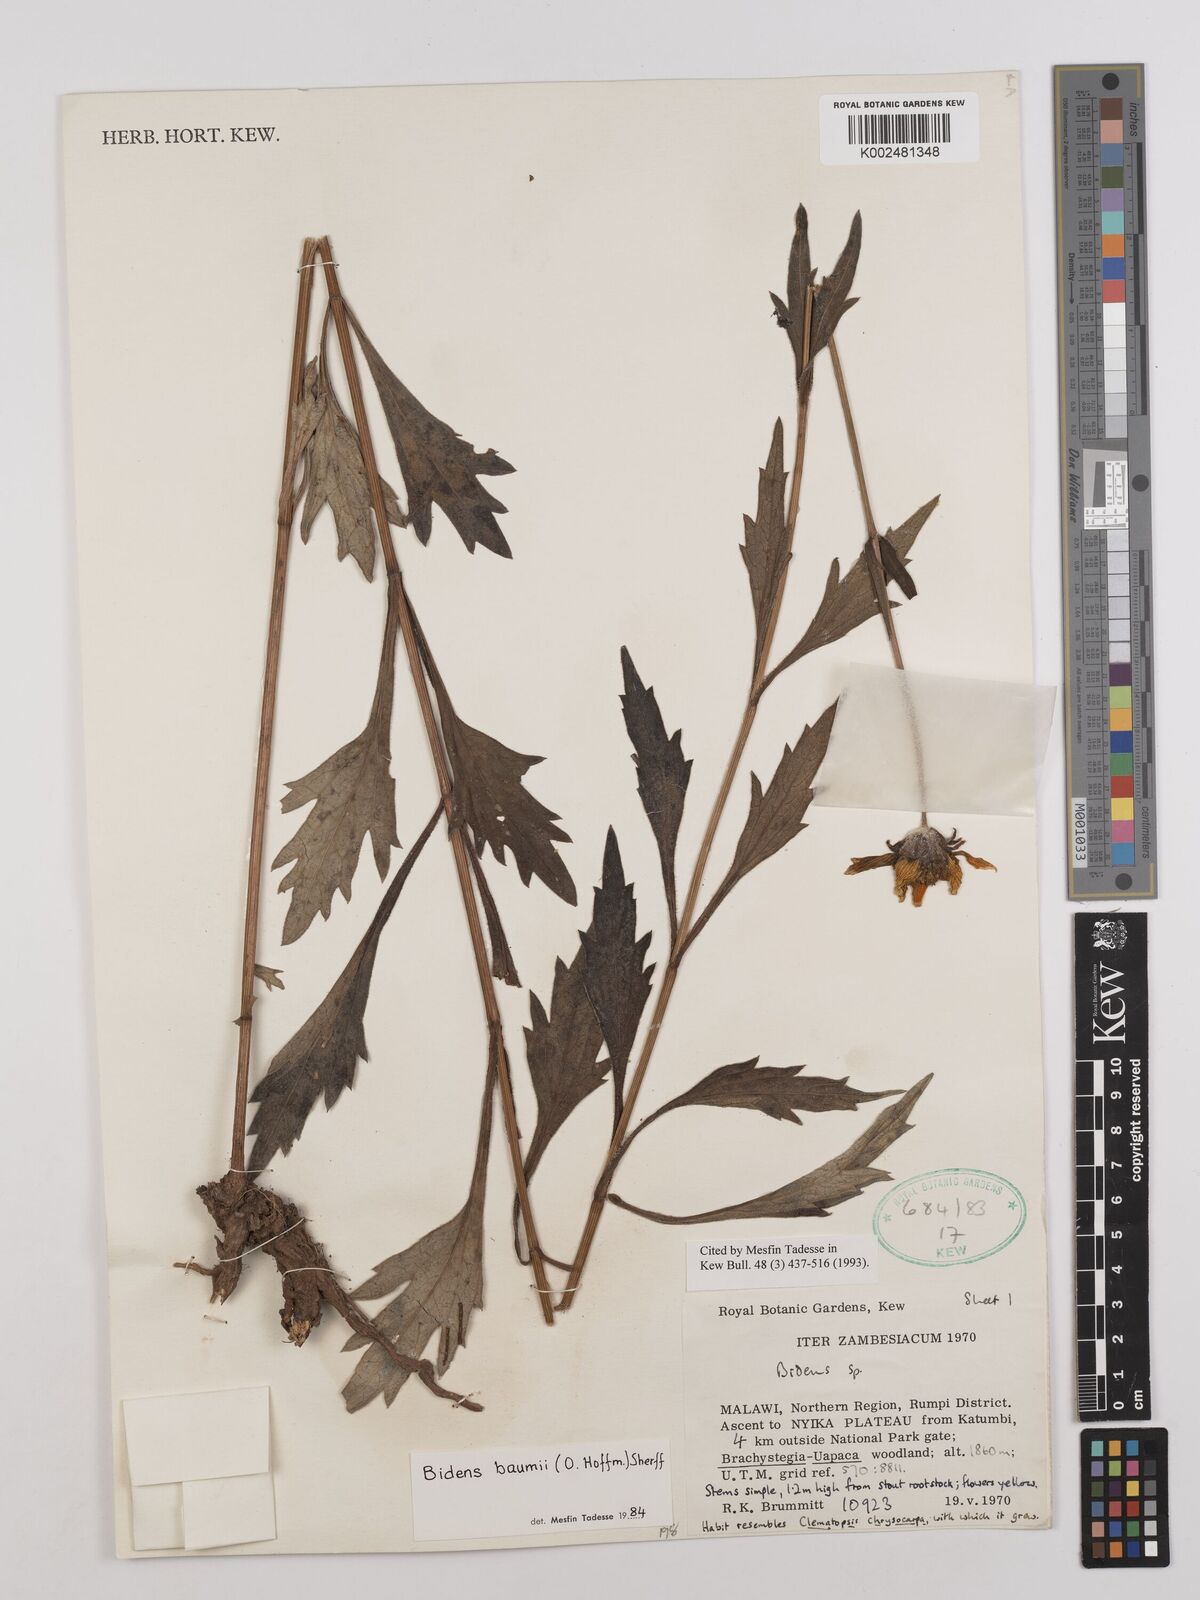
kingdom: Plantae
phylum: Tracheophyta
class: Magnoliopsida
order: Asterales
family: Asteraceae
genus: Bidens
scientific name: Bidens baumii
